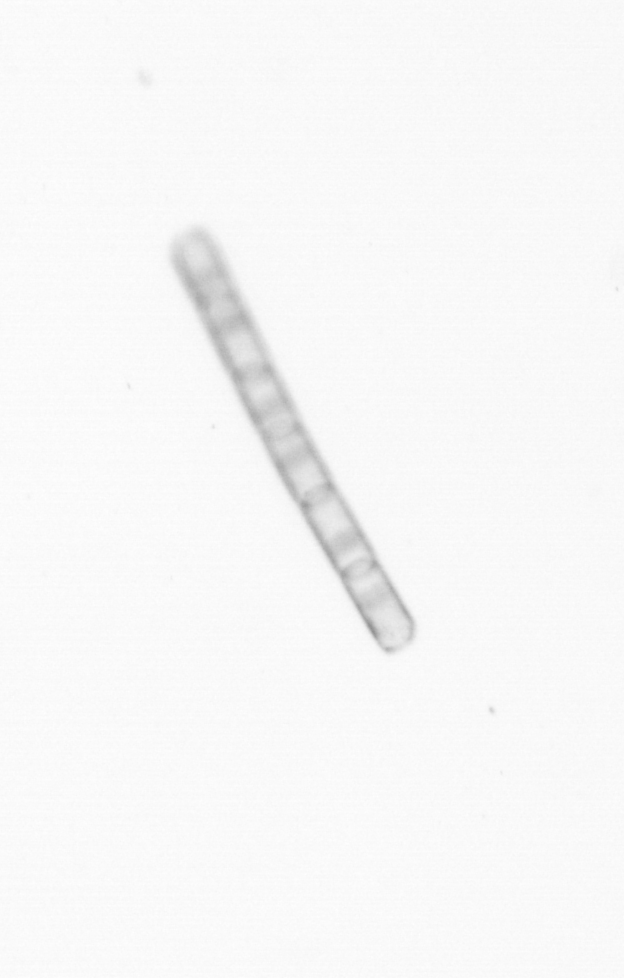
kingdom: Chromista
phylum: Ochrophyta
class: Bacillariophyceae
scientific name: Bacillariophyceae
